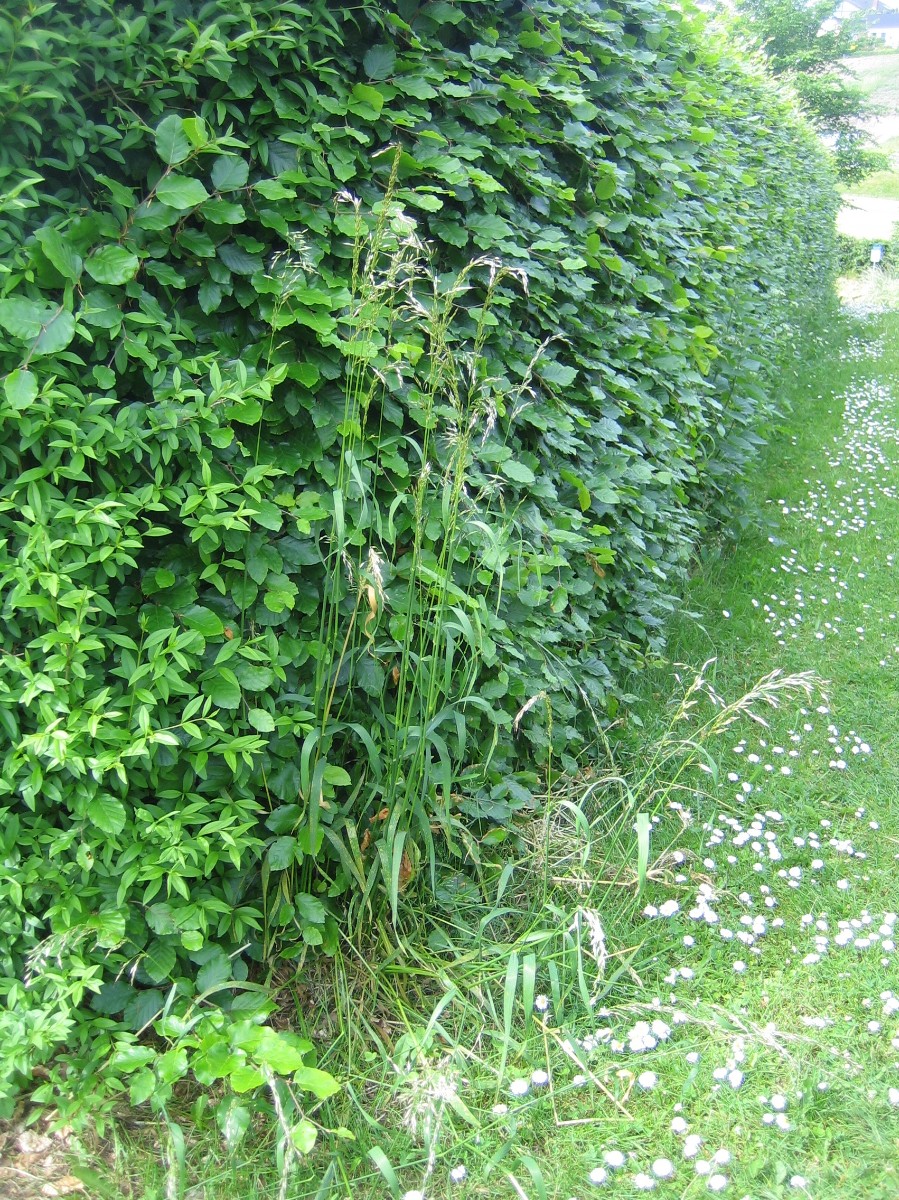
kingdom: Fungi
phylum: Basidiomycota
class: Pucciniomycetes
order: Pucciniales
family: Pucciniaceae
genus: Puccinia
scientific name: Puccinia
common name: tvecellerust
